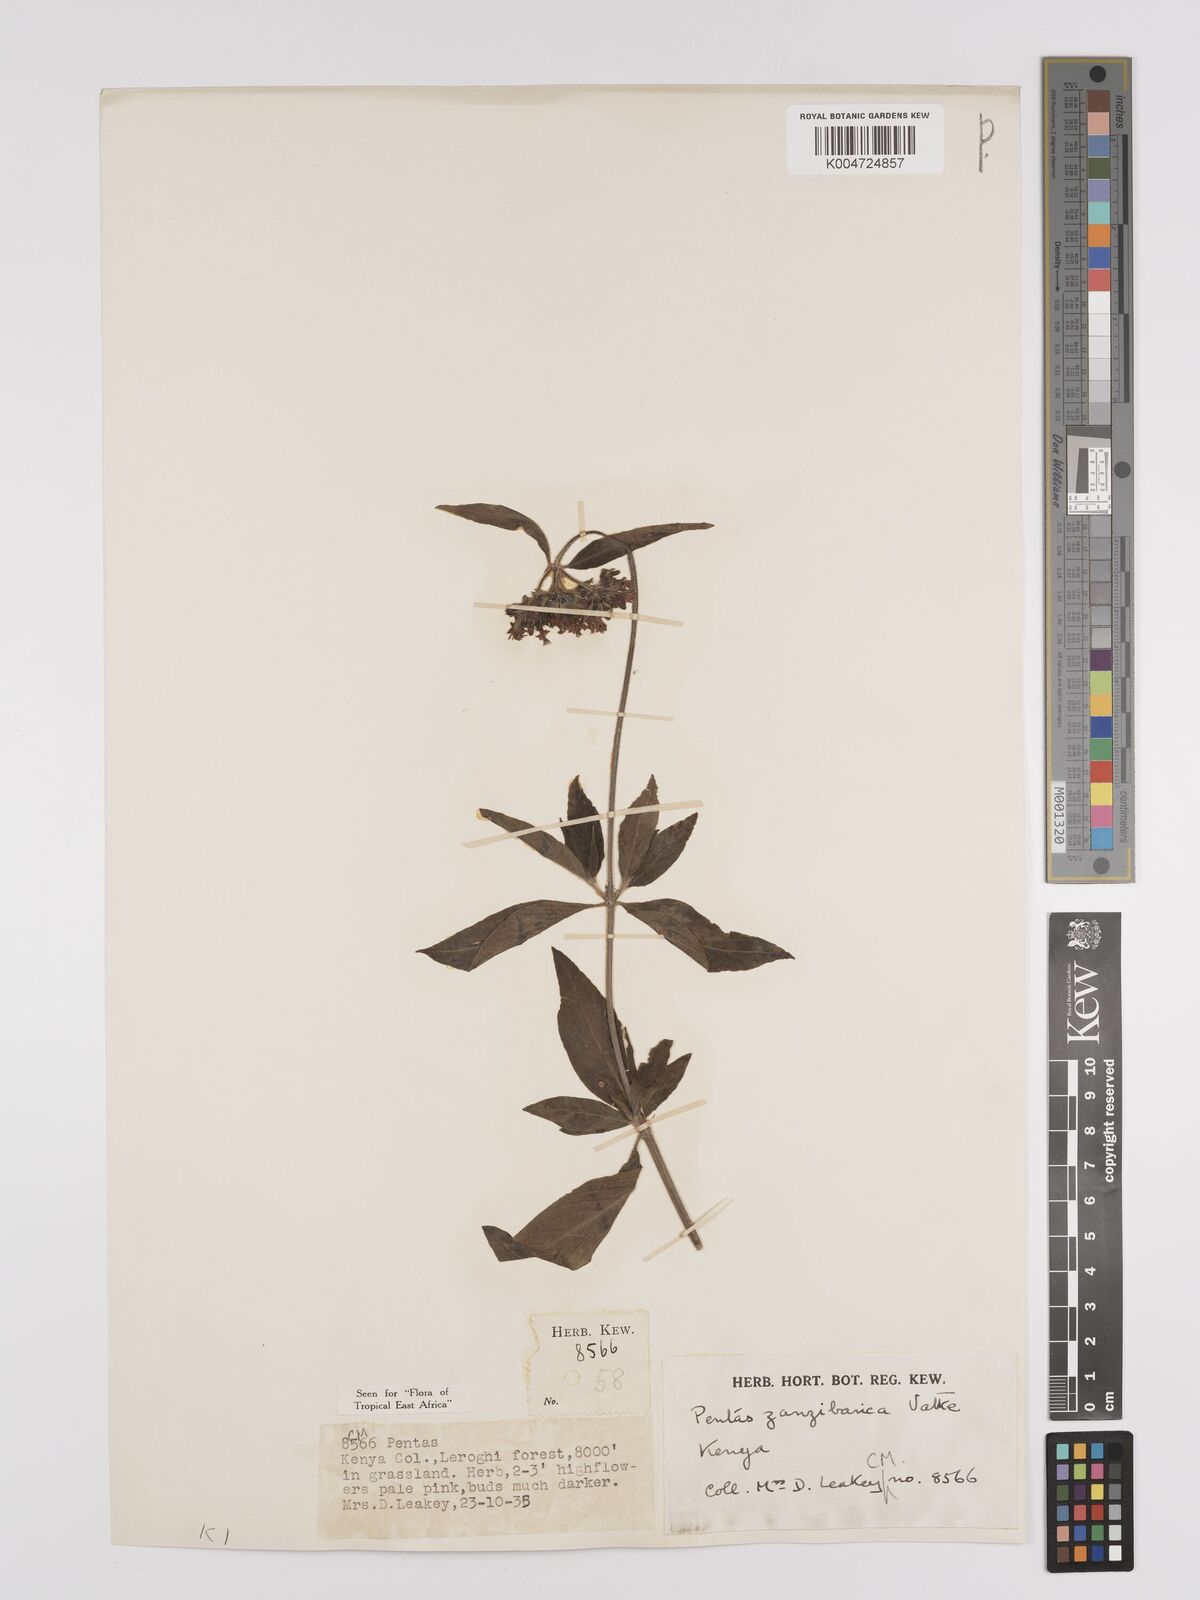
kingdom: Plantae
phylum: Tracheophyta
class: Magnoliopsida
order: Gentianales
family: Rubiaceae
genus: Pentas
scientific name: Pentas zanzibarica
